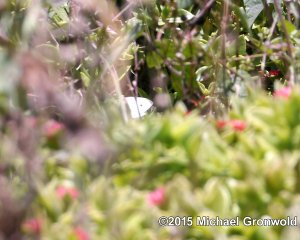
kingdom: Animalia
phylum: Arthropoda
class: Insecta
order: Lepidoptera
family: Pieridae
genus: Pieris
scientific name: Pieris rapae
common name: Cabbage White
